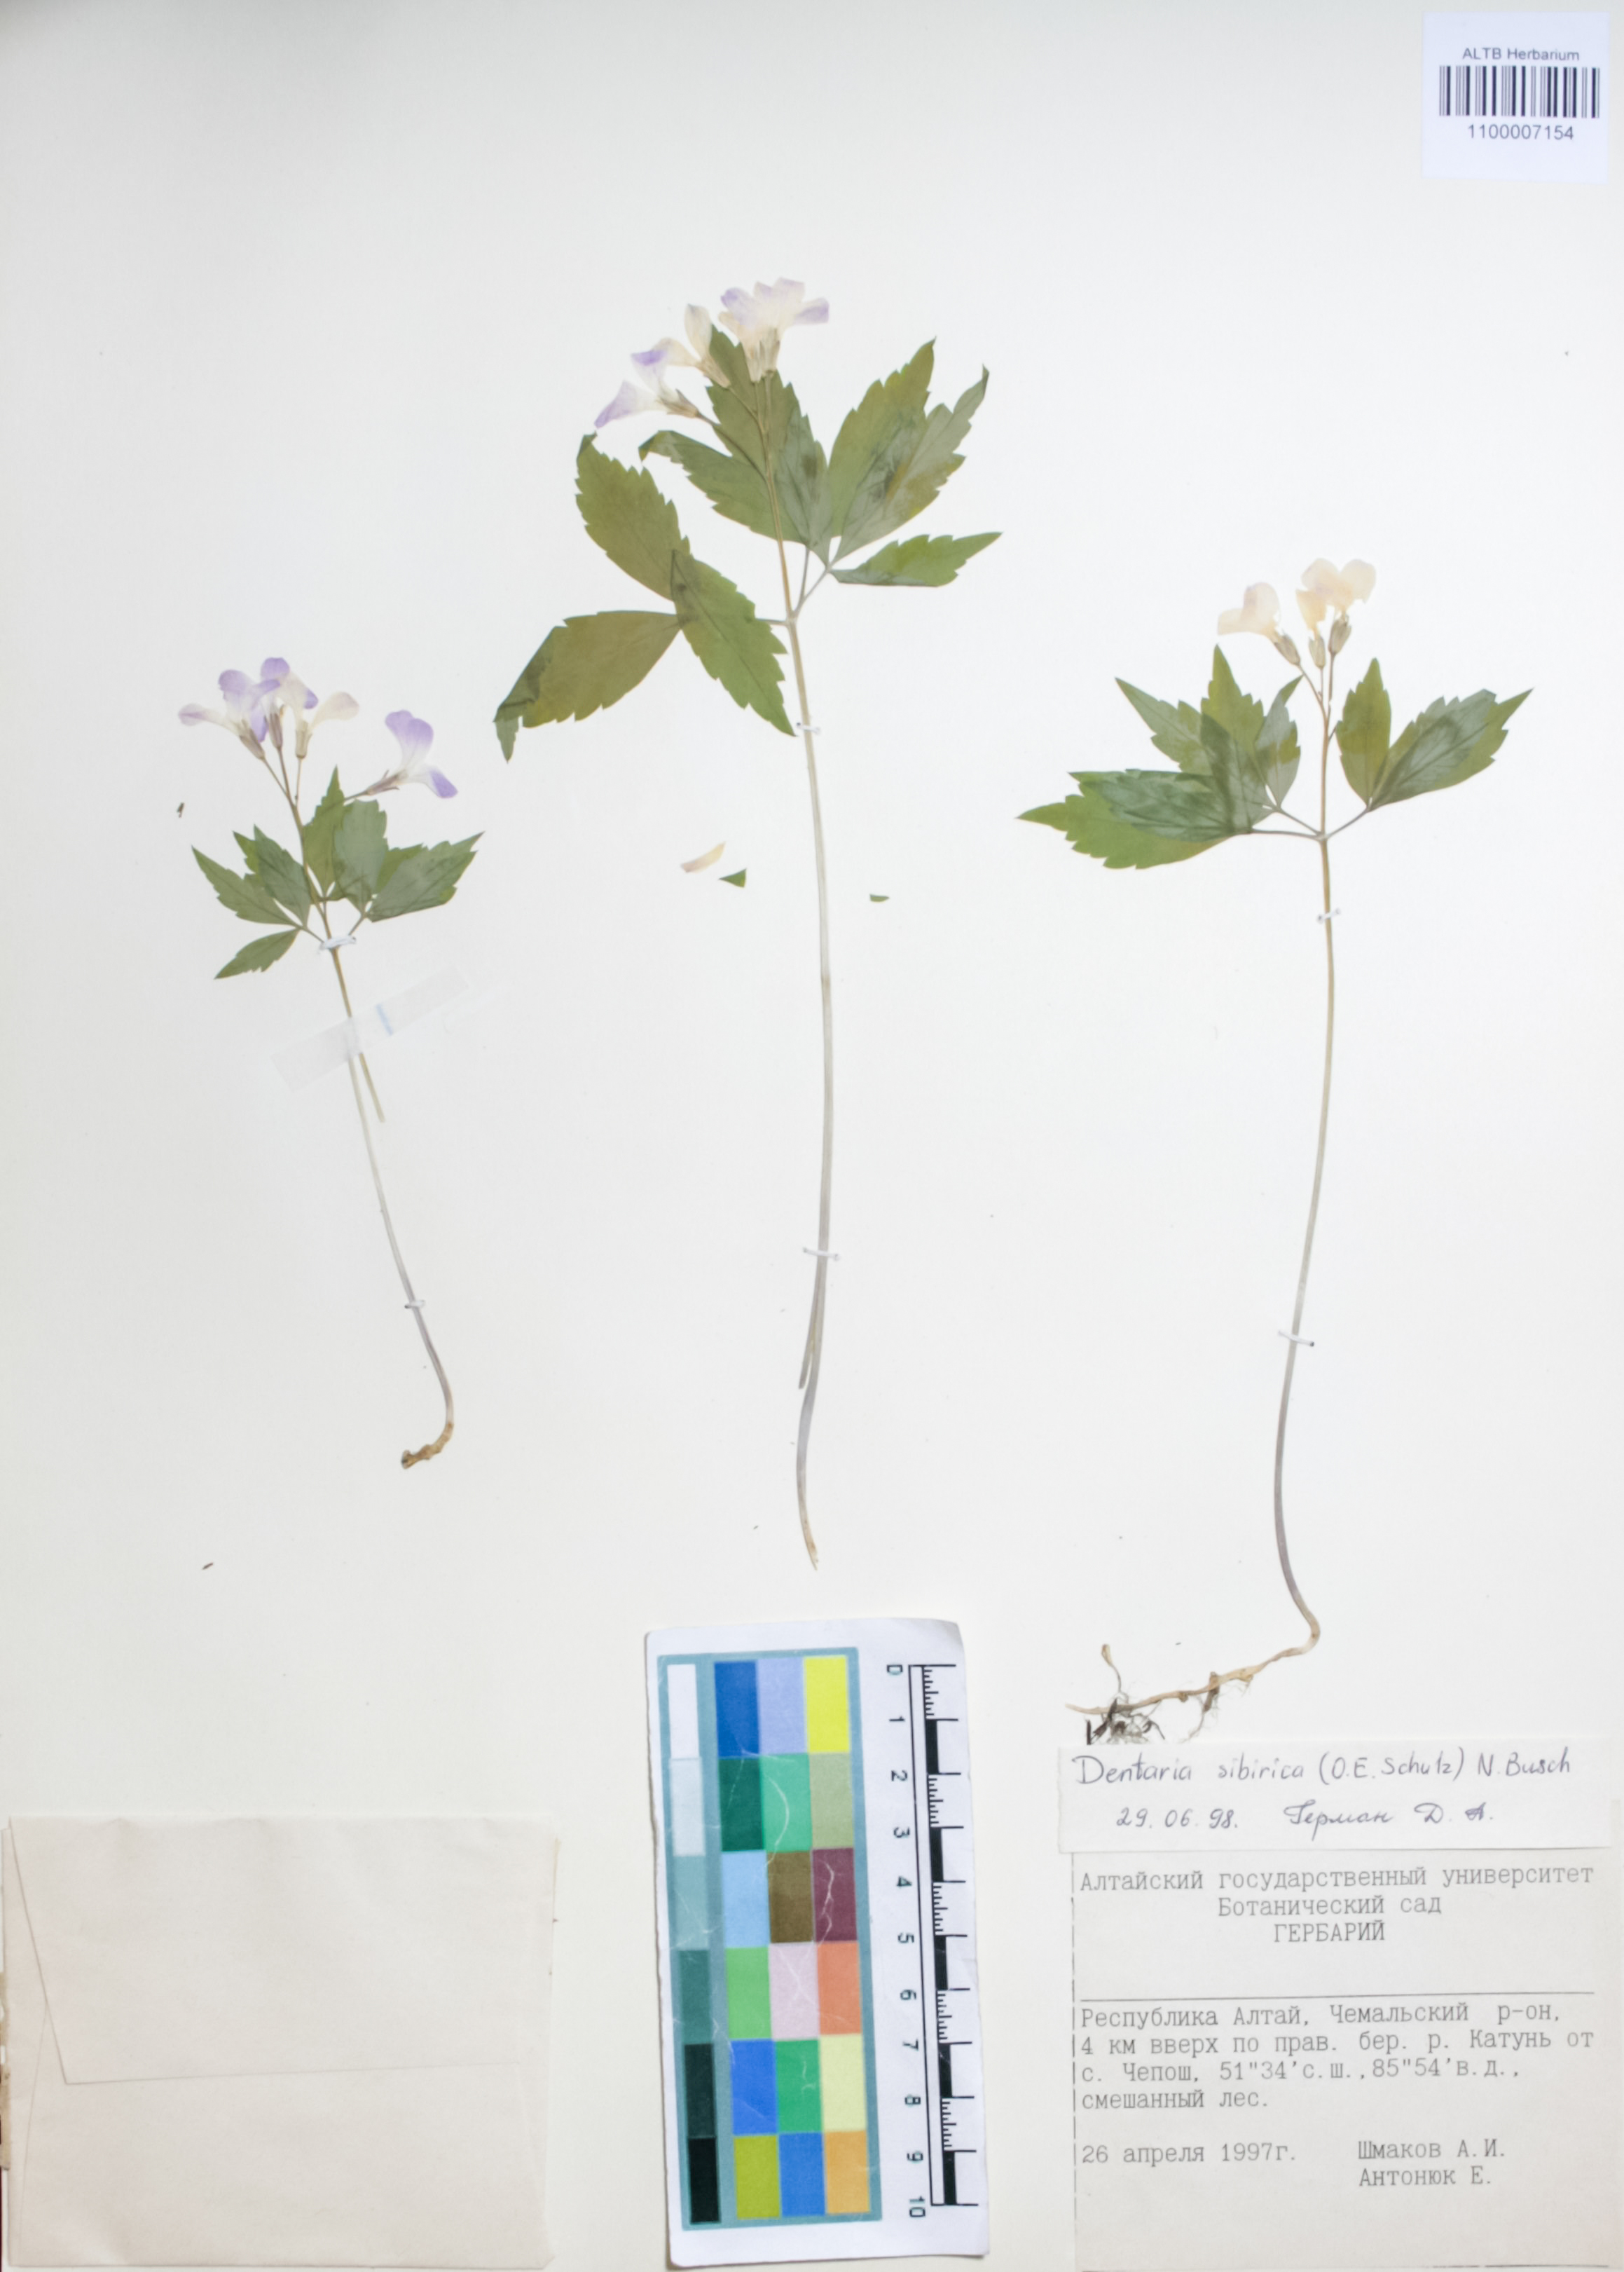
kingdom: Plantae
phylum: Tracheophyta
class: Magnoliopsida
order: Brassicales
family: Brassicaceae
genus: Cardamine
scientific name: Cardamine glanduligera
